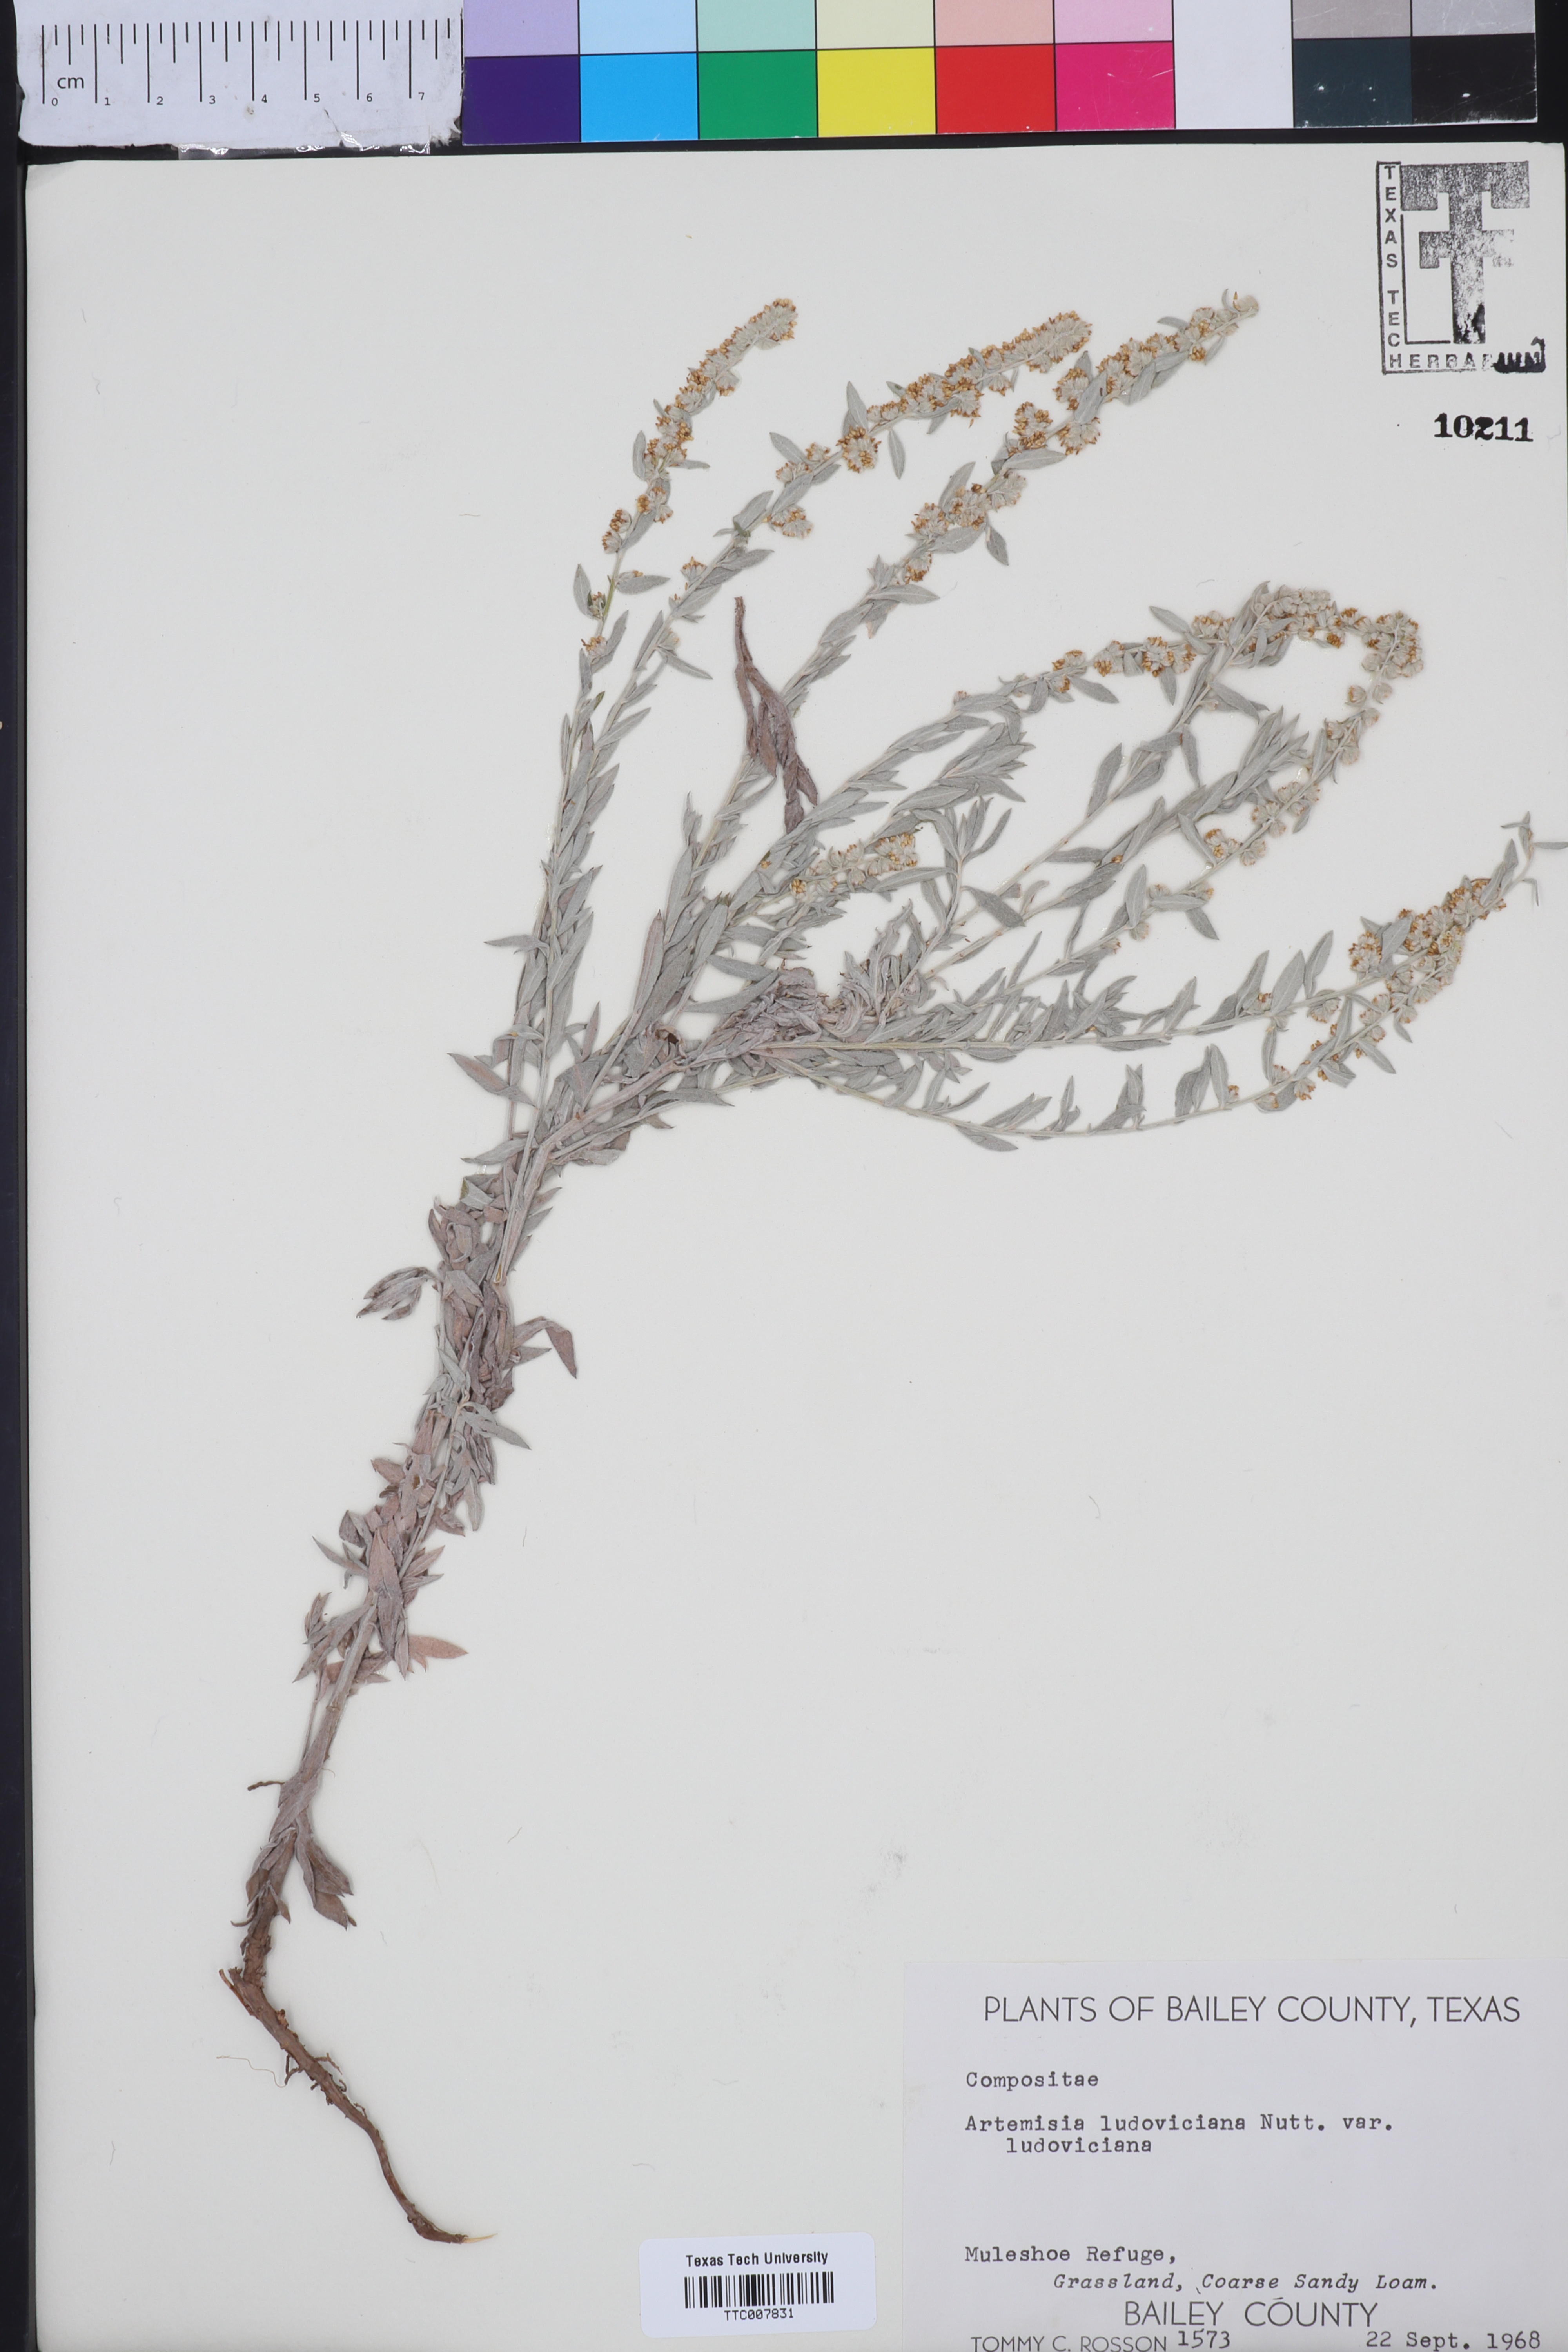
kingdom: Plantae
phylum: Tracheophyta
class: Magnoliopsida
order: Asterales
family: Asteraceae
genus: Artemisia
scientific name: Artemisia ludoviciana
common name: Western mugwort
